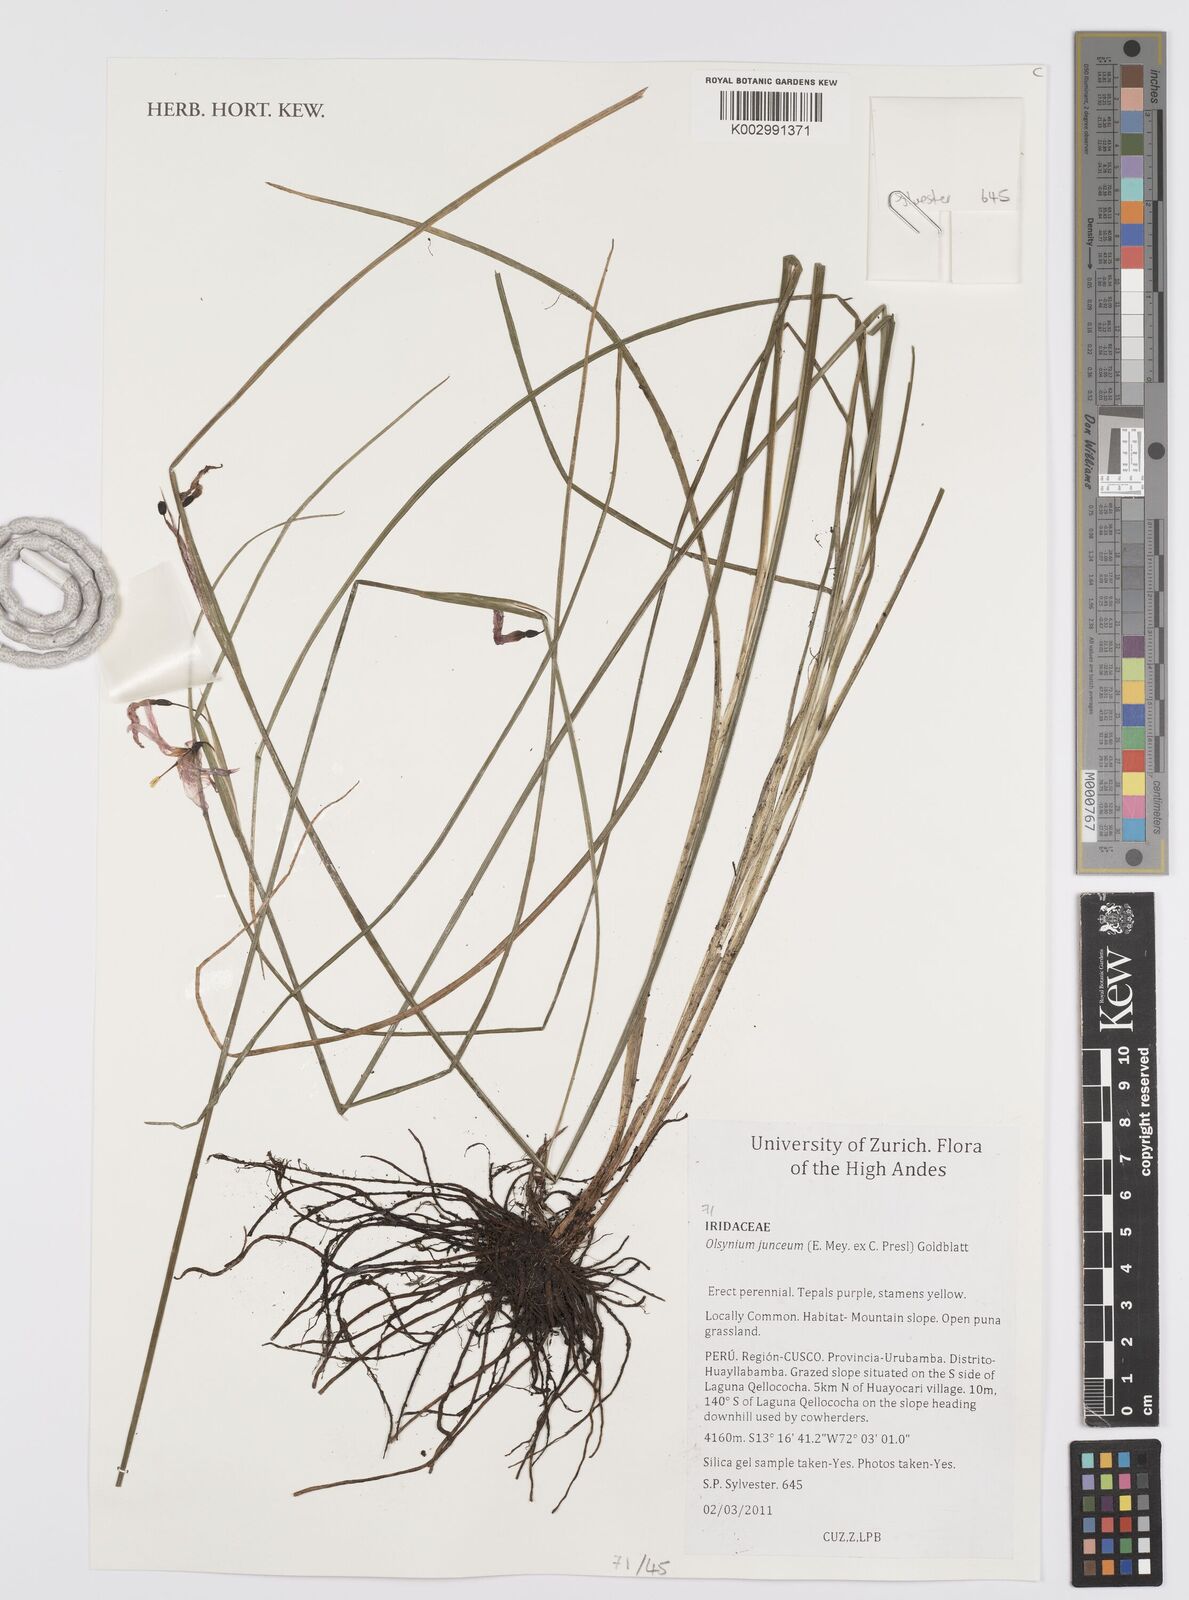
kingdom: Plantae
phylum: Tracheophyta
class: Liliopsida
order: Asparagales
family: Iridaceae
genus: Olsynium
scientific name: Olsynium junceum
